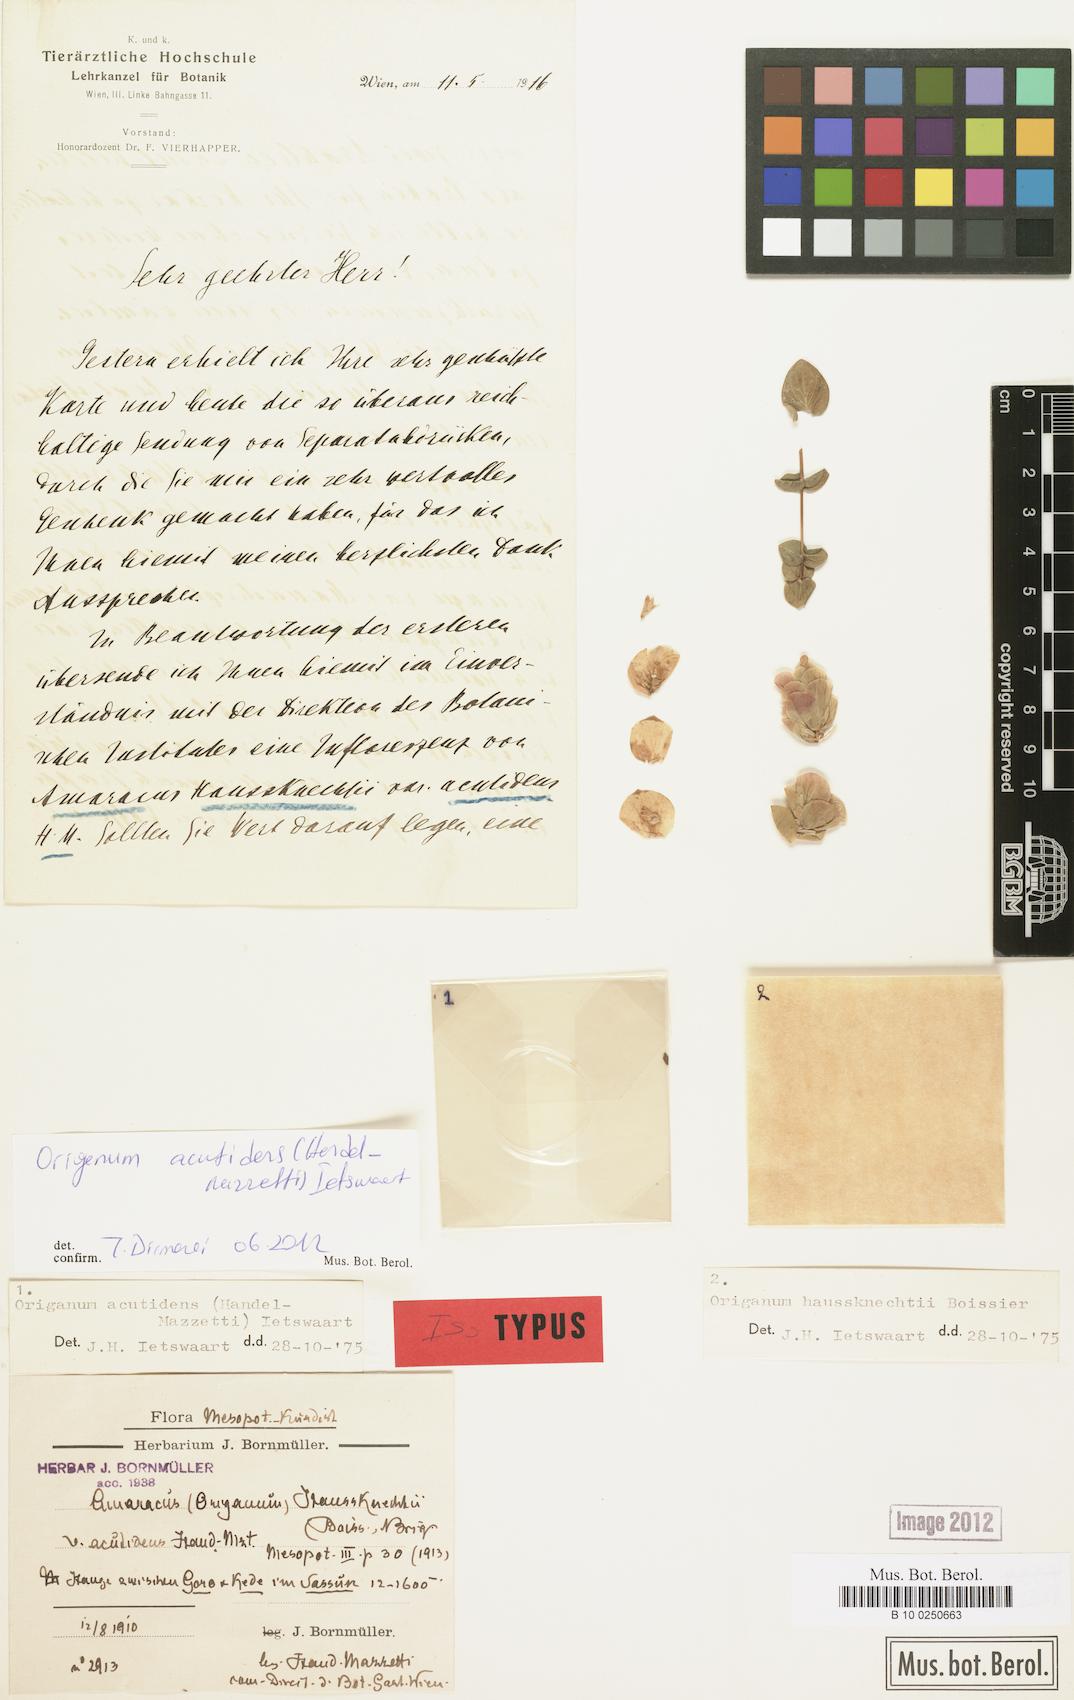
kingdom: Plantae
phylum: Tracheophyta
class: Magnoliopsida
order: Lamiales
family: Lamiaceae
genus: Origanum
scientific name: Origanum acutidens
